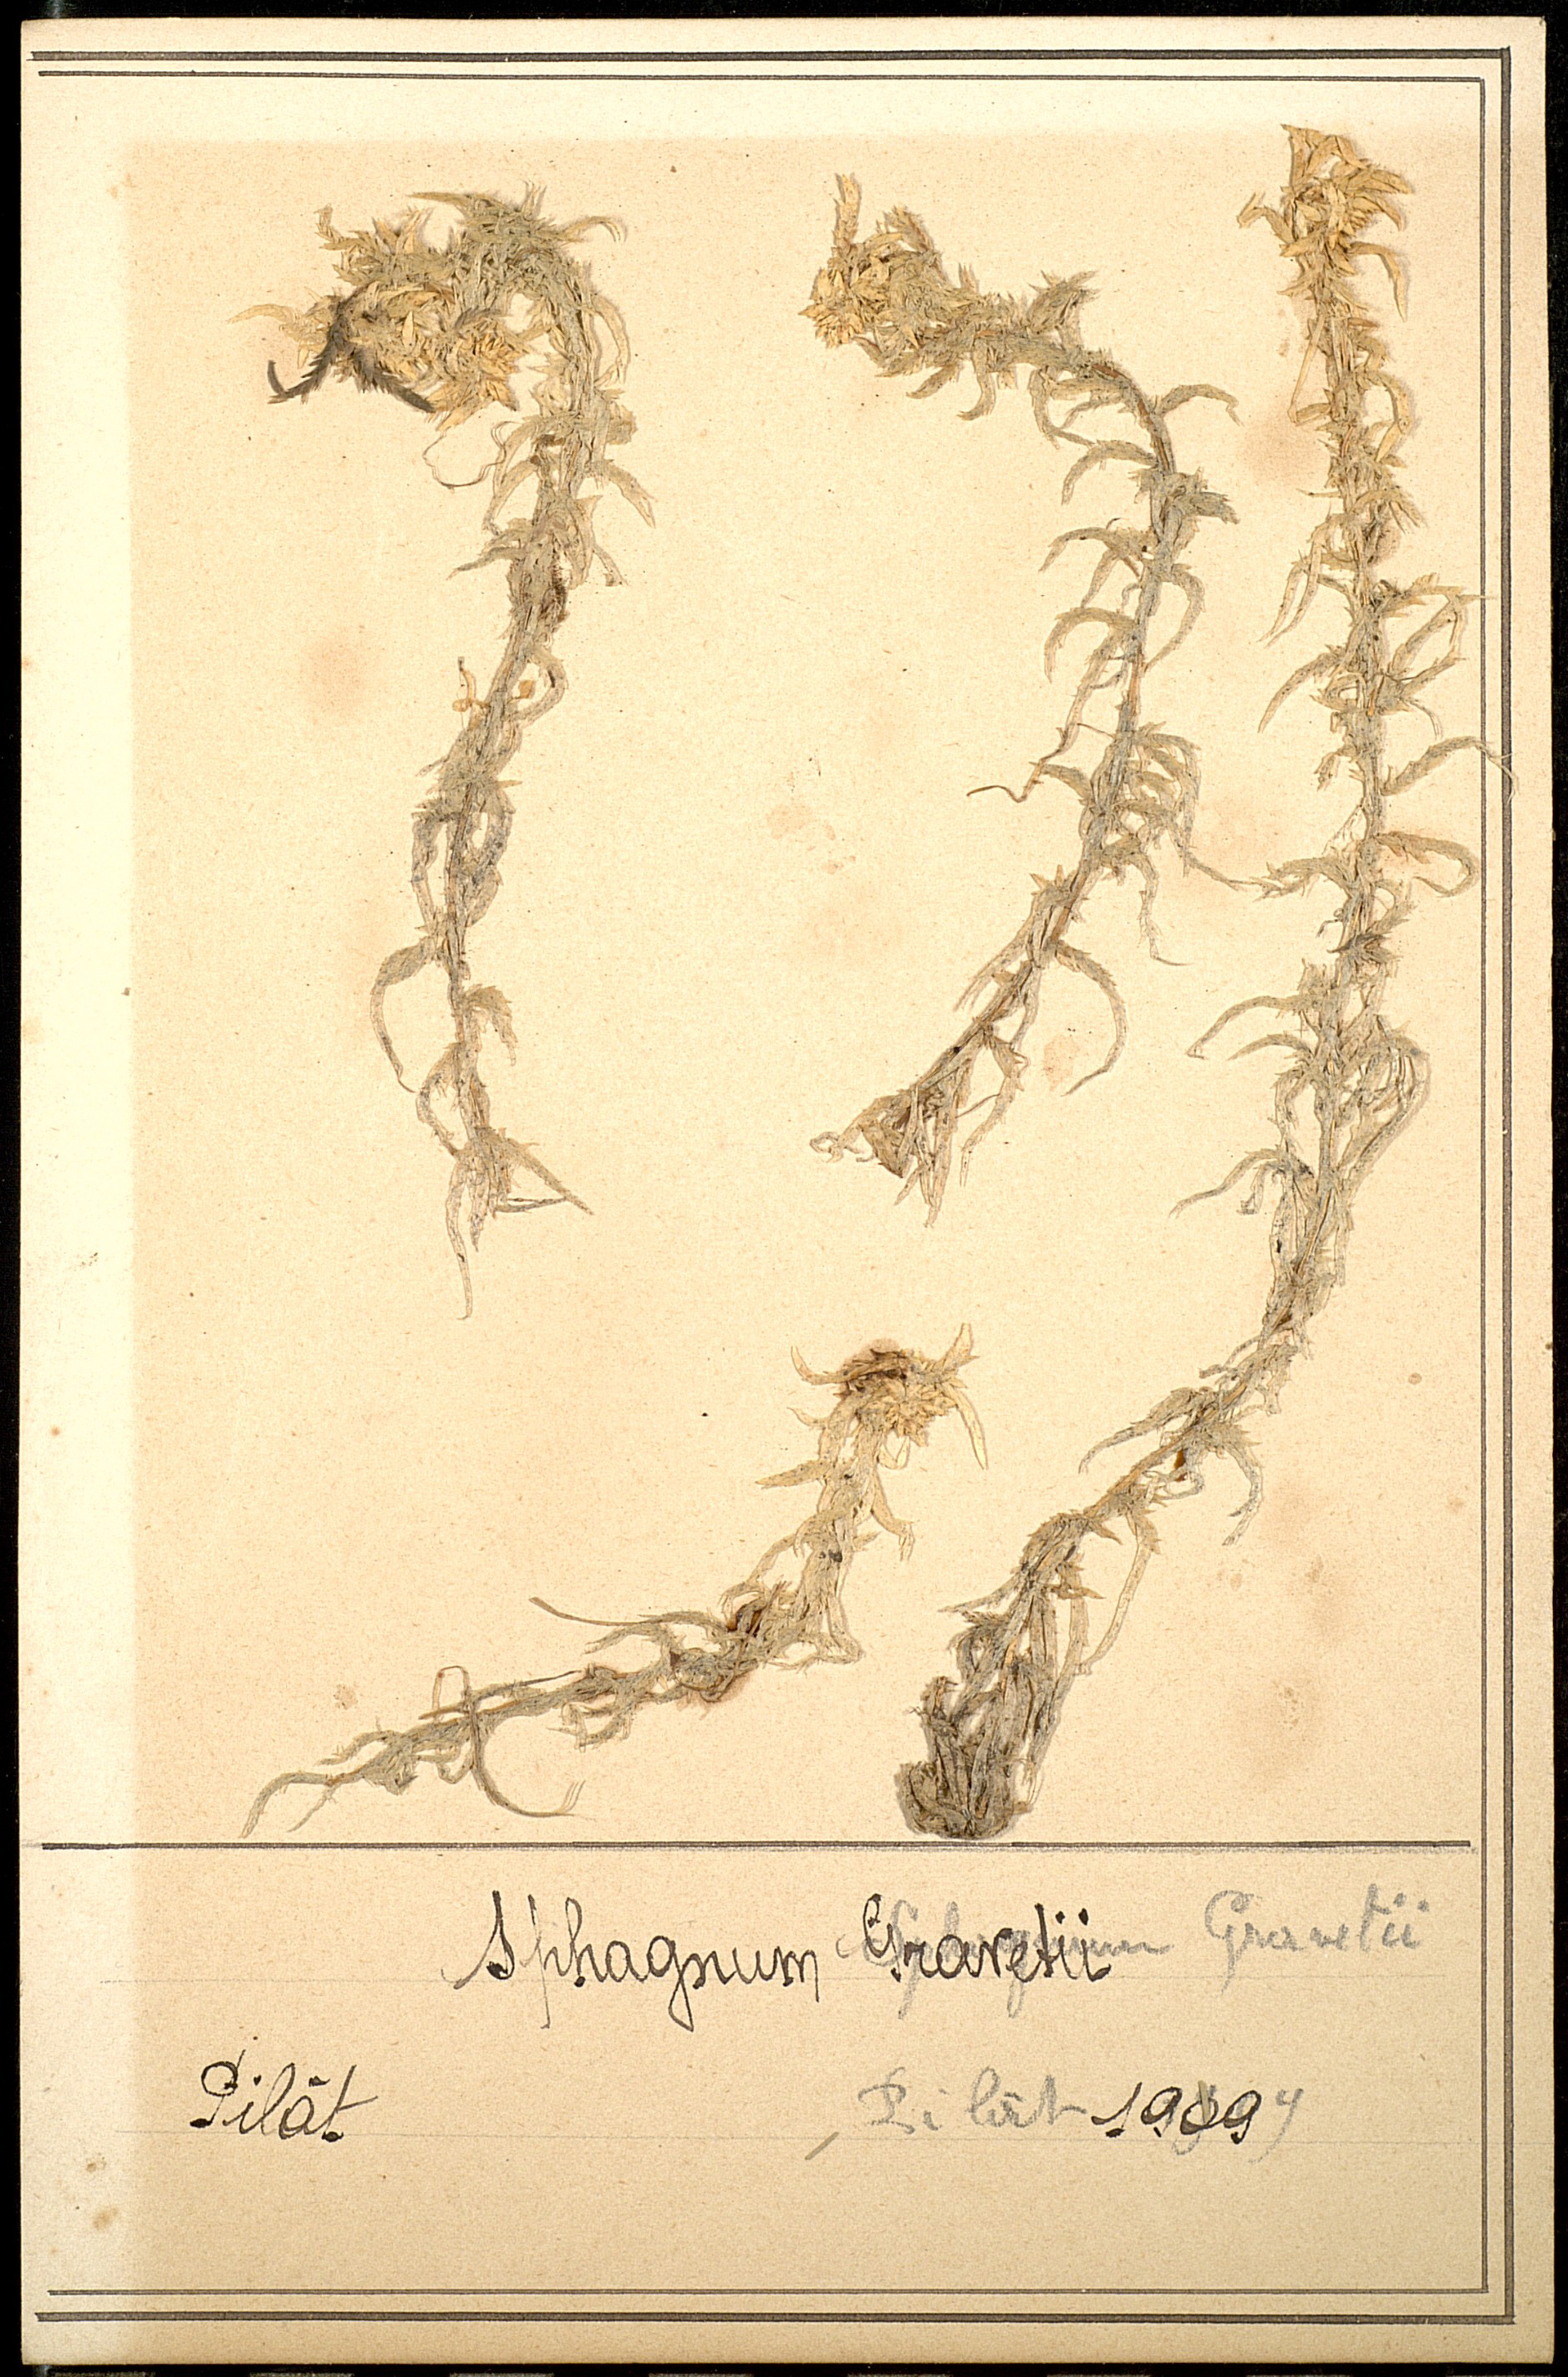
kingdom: Plantae
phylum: Bryophyta
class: Sphagnopsida
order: Sphagnales
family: Sphagnaceae
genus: Sphagnum
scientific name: Sphagnum
